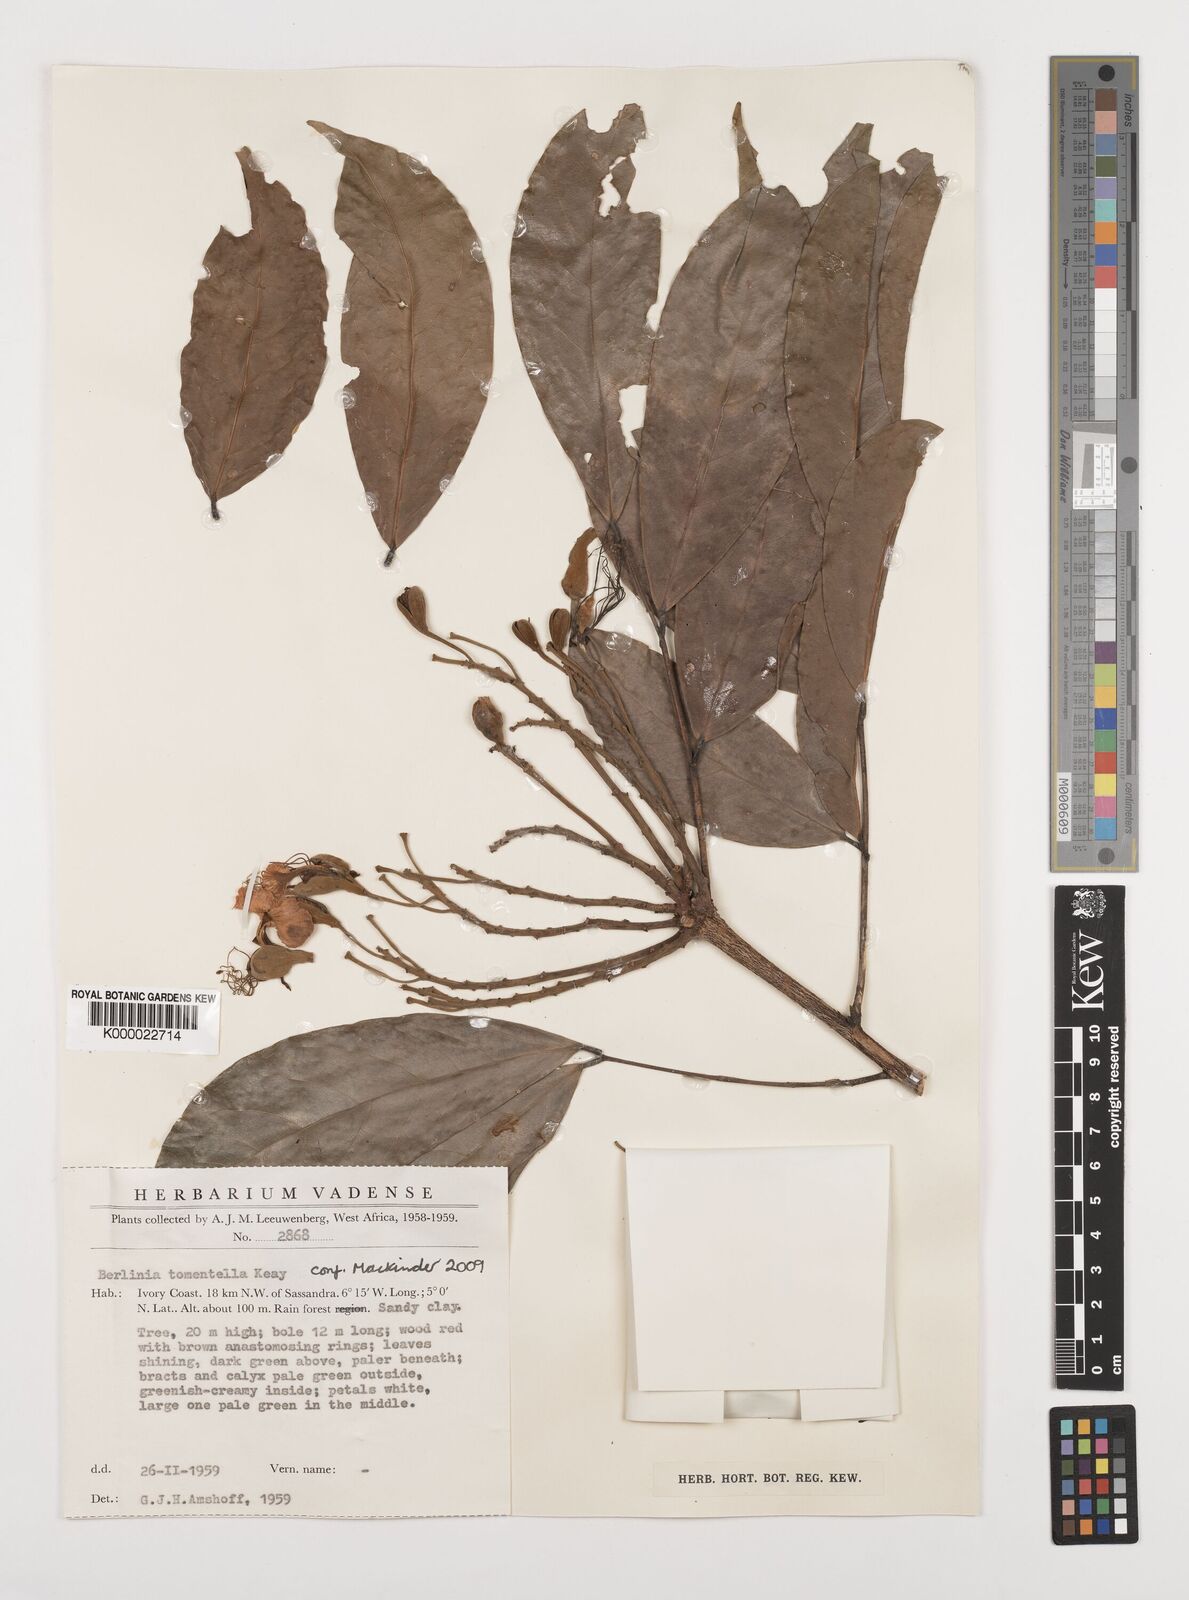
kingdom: Plantae
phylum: Tracheophyta
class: Magnoliopsida
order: Fabales
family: Fabaceae
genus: Berlinia
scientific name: Berlinia tomentella
